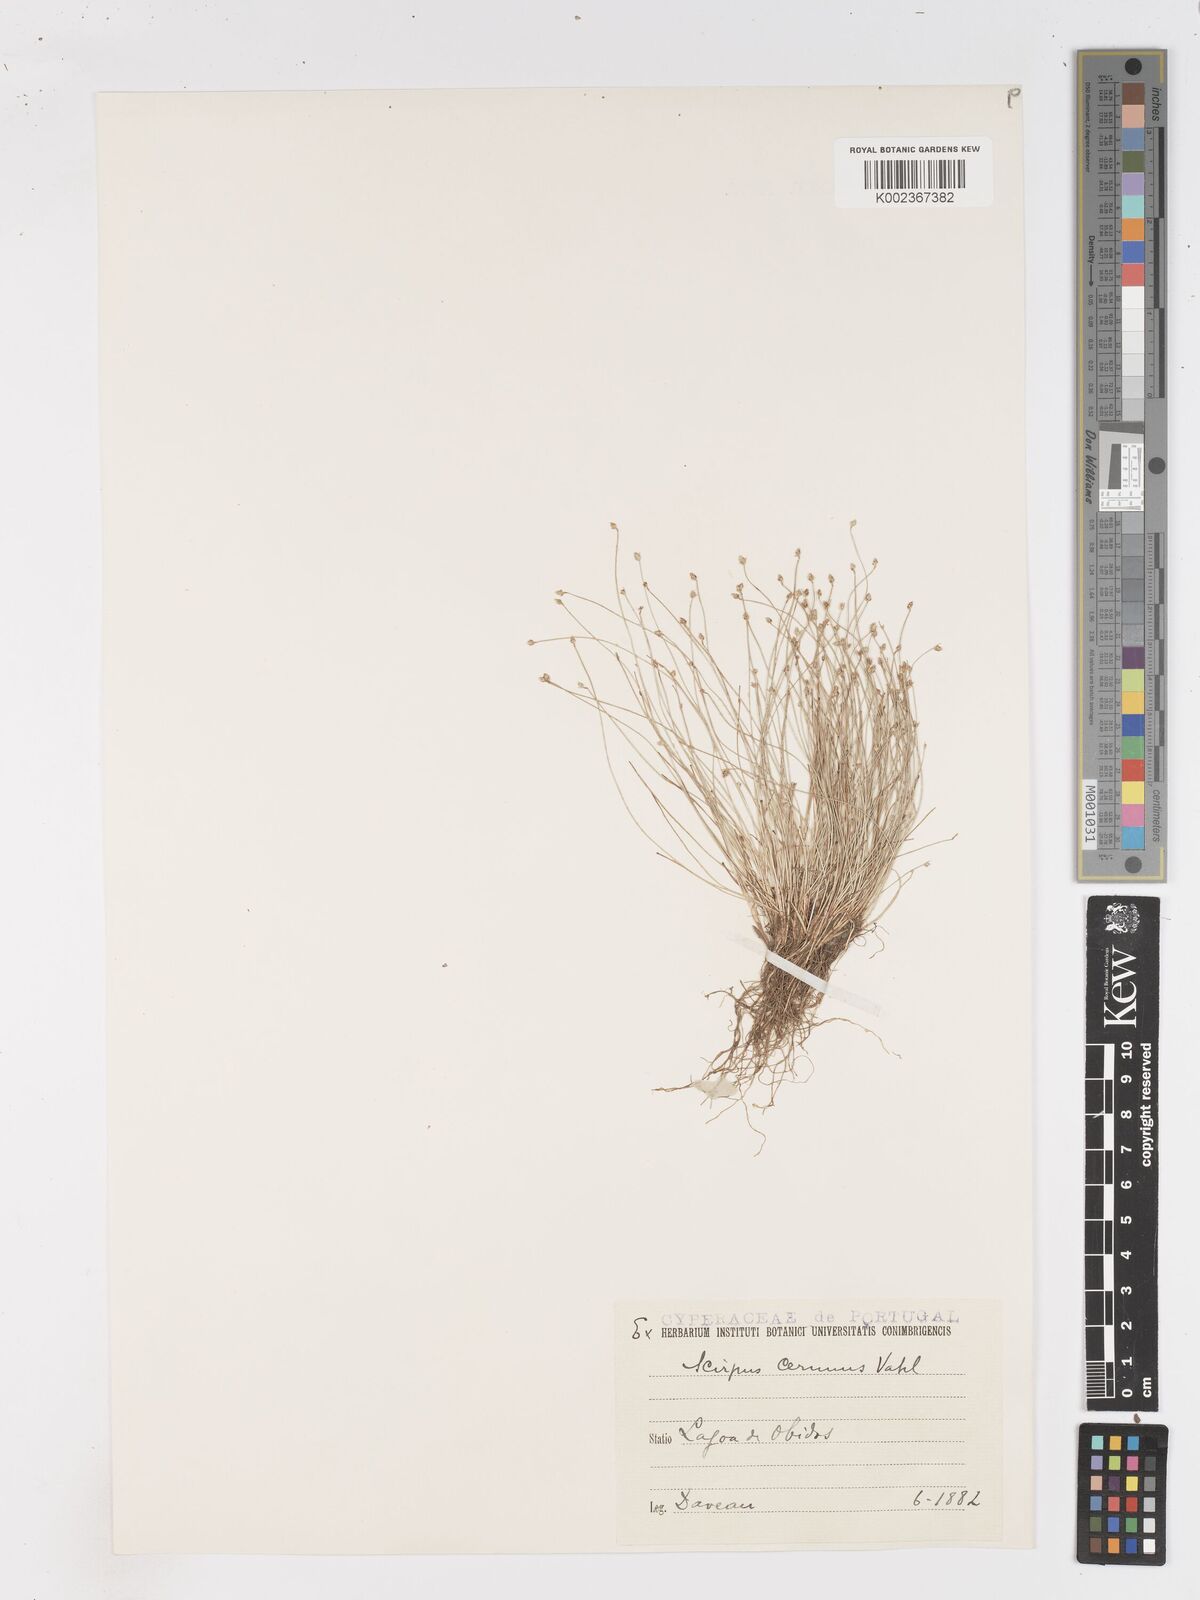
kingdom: Plantae
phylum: Tracheophyta
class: Liliopsida
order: Poales
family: Cyperaceae
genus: Isolepis
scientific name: Isolepis cernua
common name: Slender club-rush
